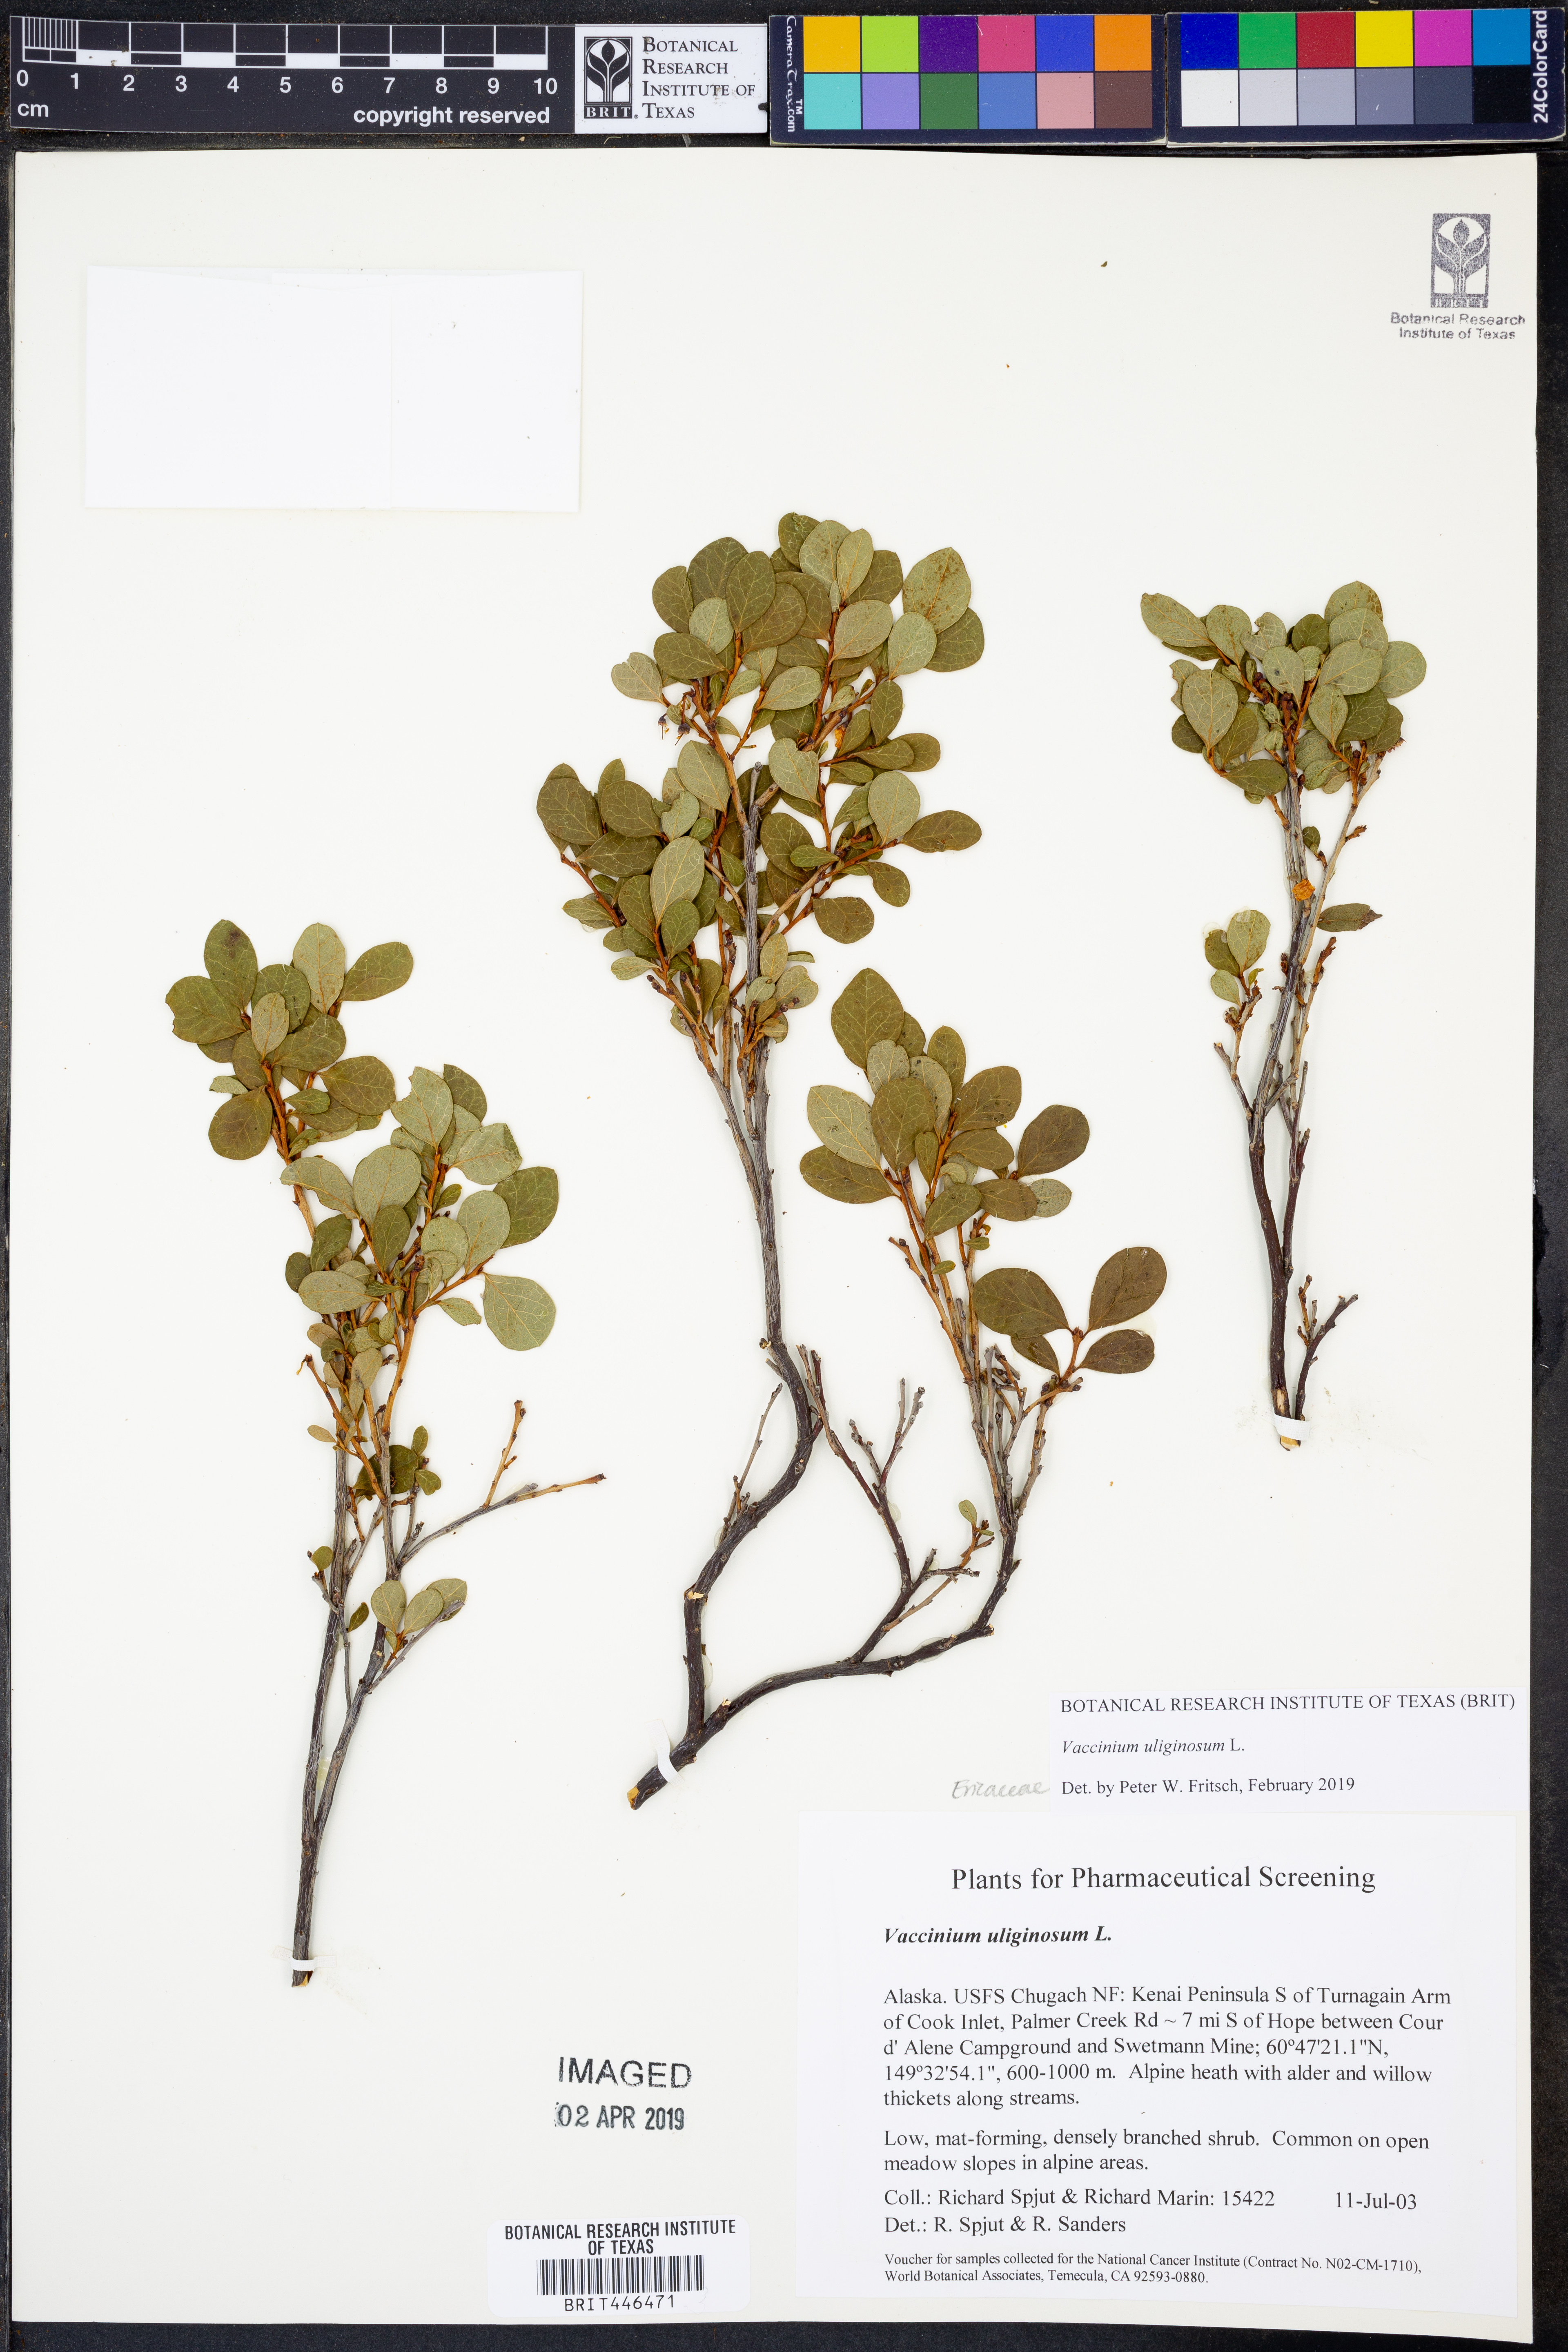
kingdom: Plantae
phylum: Tracheophyta
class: Magnoliopsida
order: Ericales
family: Ericaceae
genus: Vaccinium
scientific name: Vaccinium uliginosum
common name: Bog bilberry
